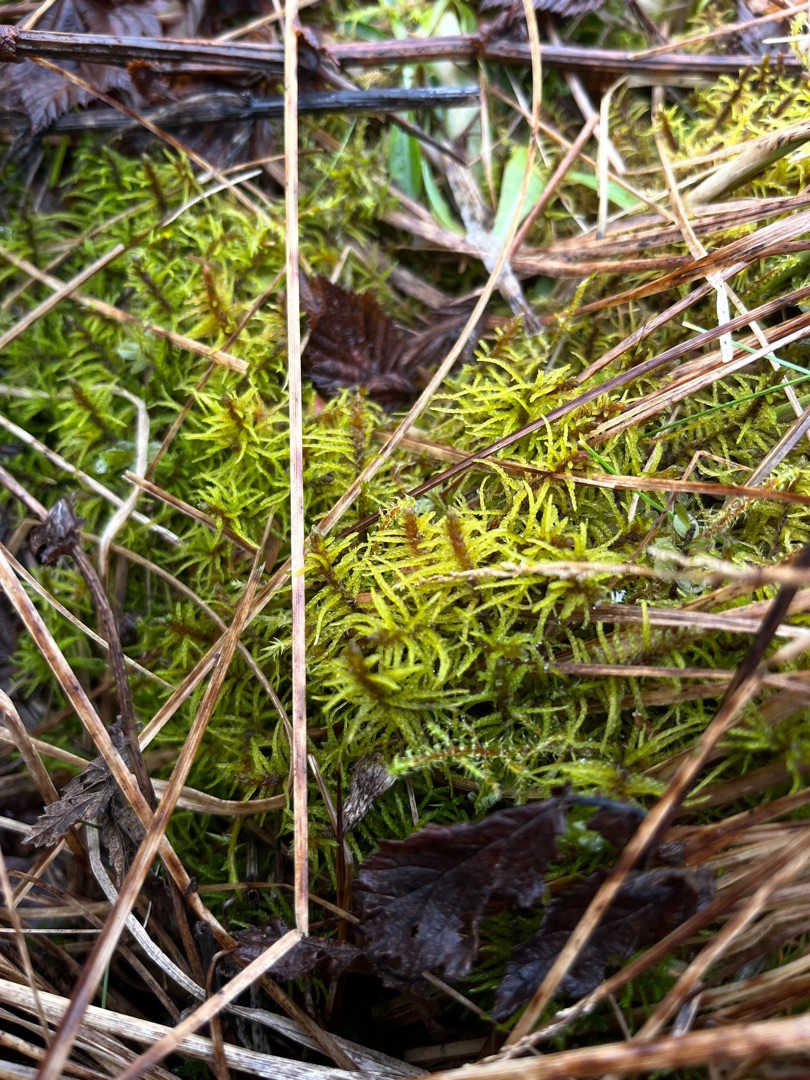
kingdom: Plantae
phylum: Bryophyta
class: Bryopsida
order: Hypnales
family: Helodiaceae
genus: Helodium
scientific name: Helodium blandowii
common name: Kær-gyldenmos
